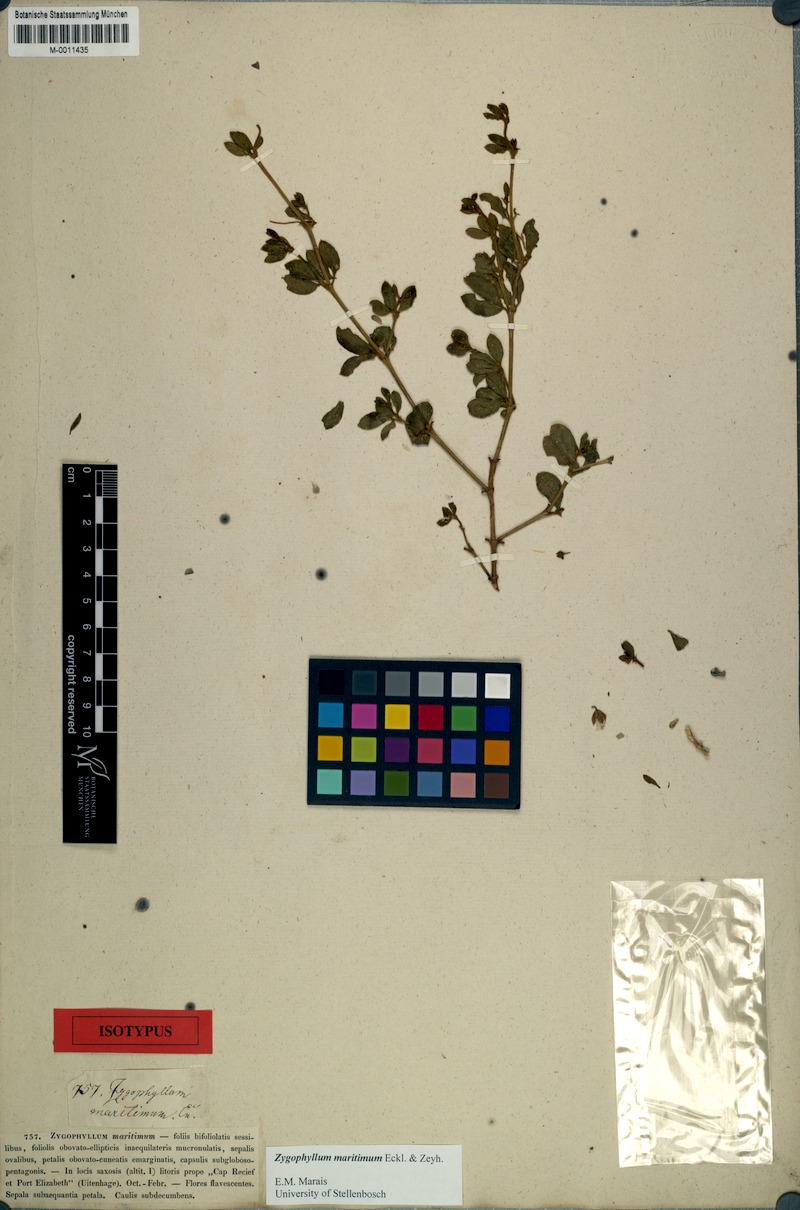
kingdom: Plantae
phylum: Tracheophyta
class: Magnoliopsida
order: Zygophyllales
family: Zygophyllaceae
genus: Roepera
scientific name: Roepera maritima
